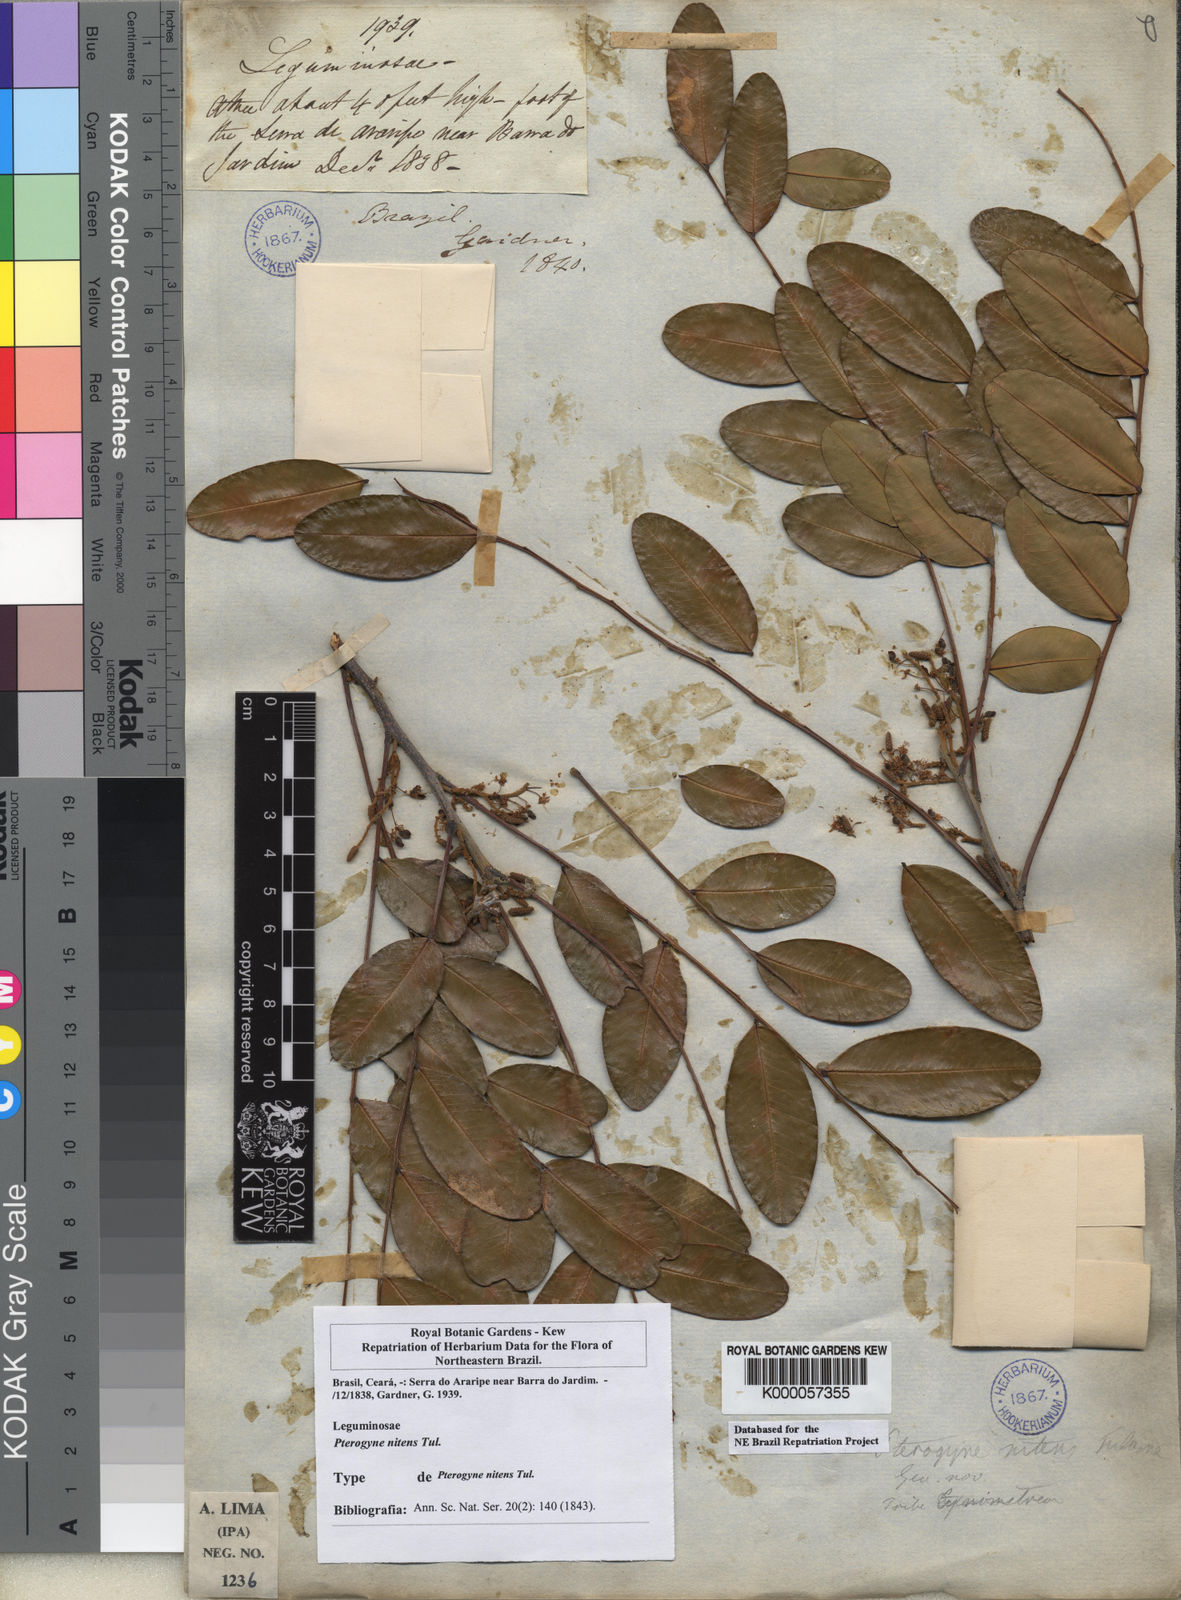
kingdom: Plantae
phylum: Tracheophyta
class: Magnoliopsida
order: Fabales
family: Fabaceae
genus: Pterogyne
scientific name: Pterogyne nitens
